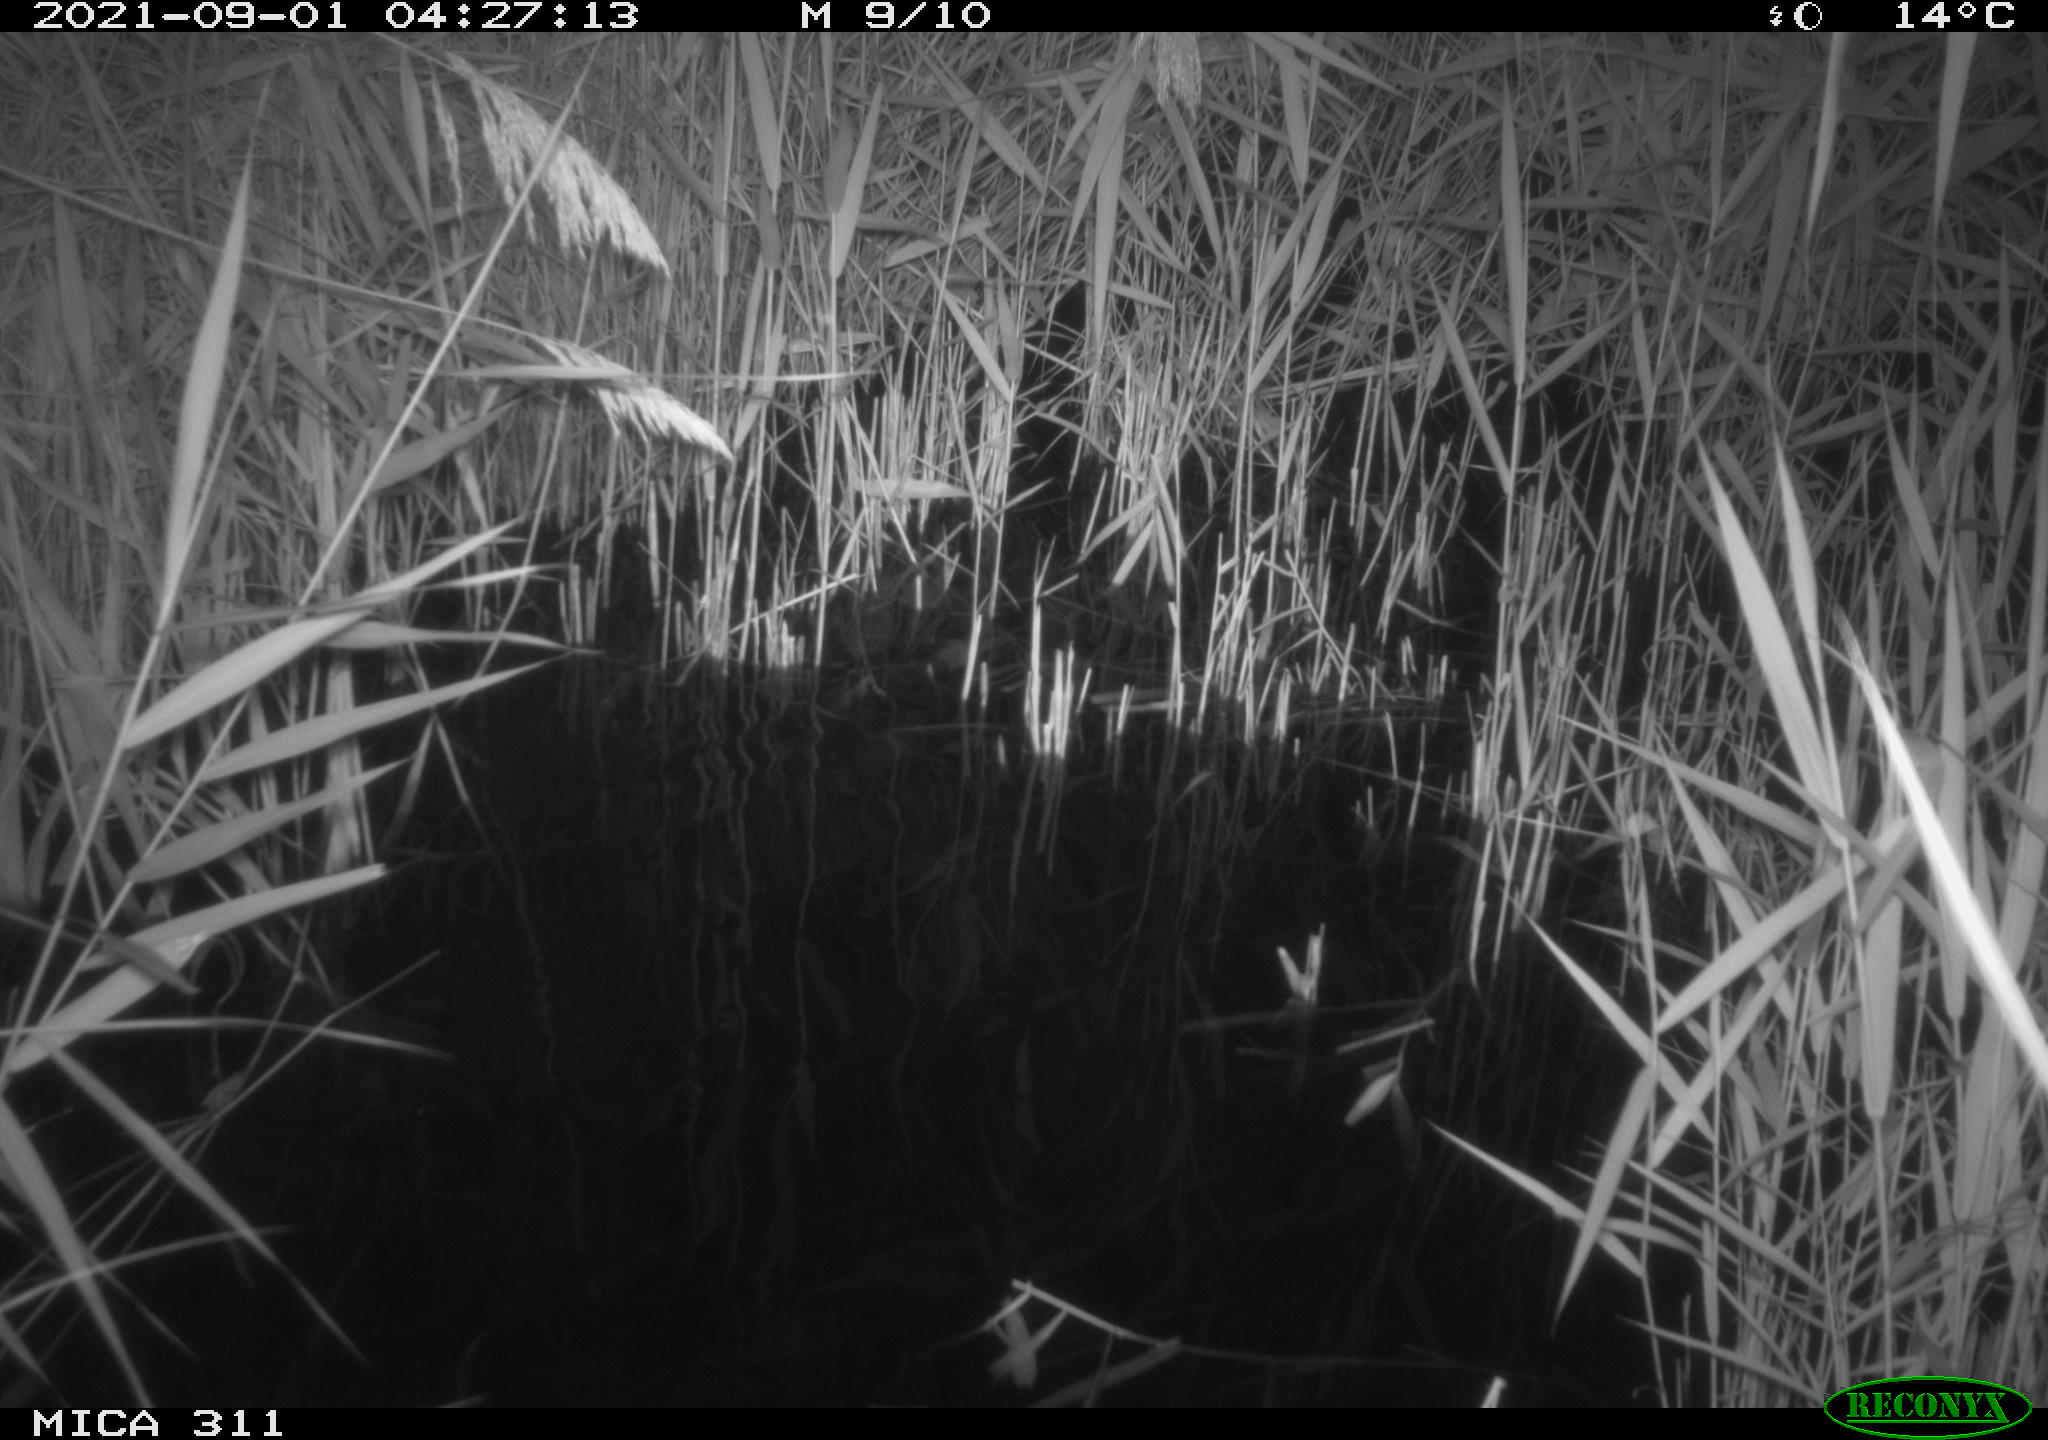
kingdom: Animalia
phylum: Chordata
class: Mammalia
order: Rodentia
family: Muridae
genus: Rattus
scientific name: Rattus norvegicus
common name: Brown rat
